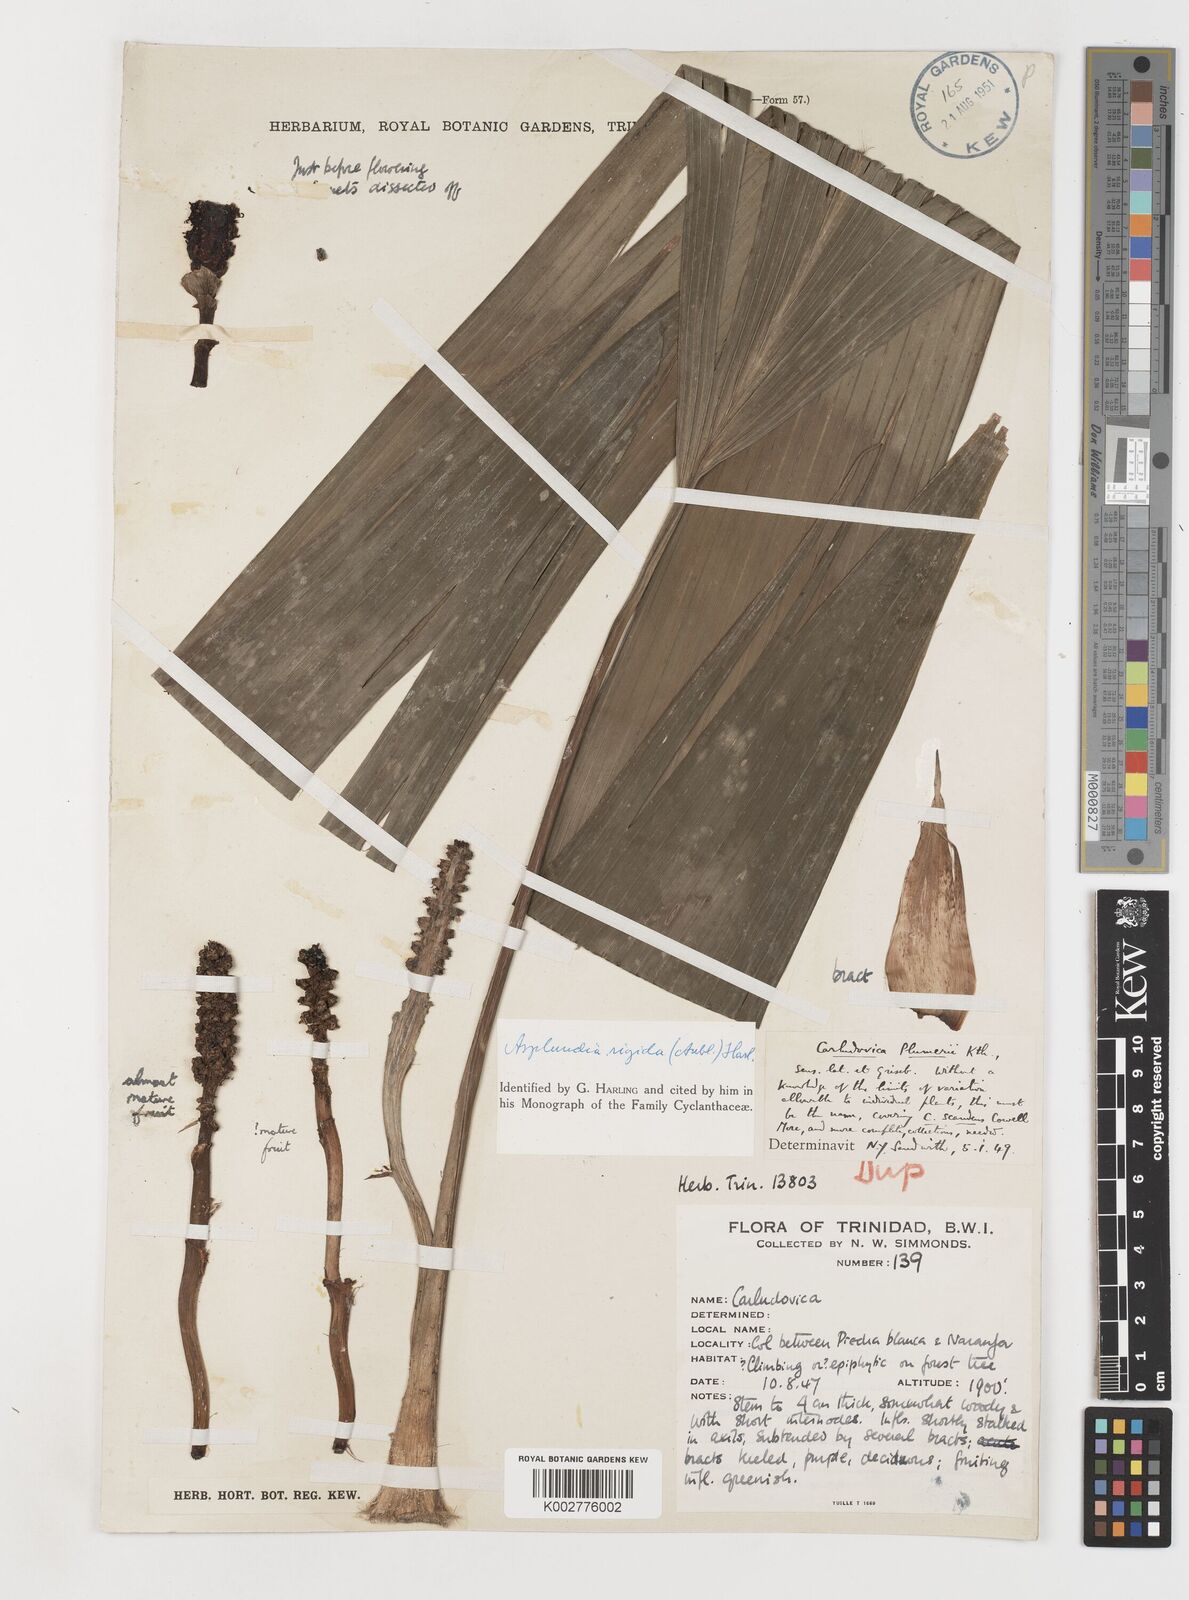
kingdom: Plantae
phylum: Tracheophyta
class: Liliopsida
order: Pandanales
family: Cyclanthaceae
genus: Asplundia
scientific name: Asplundia rigida
